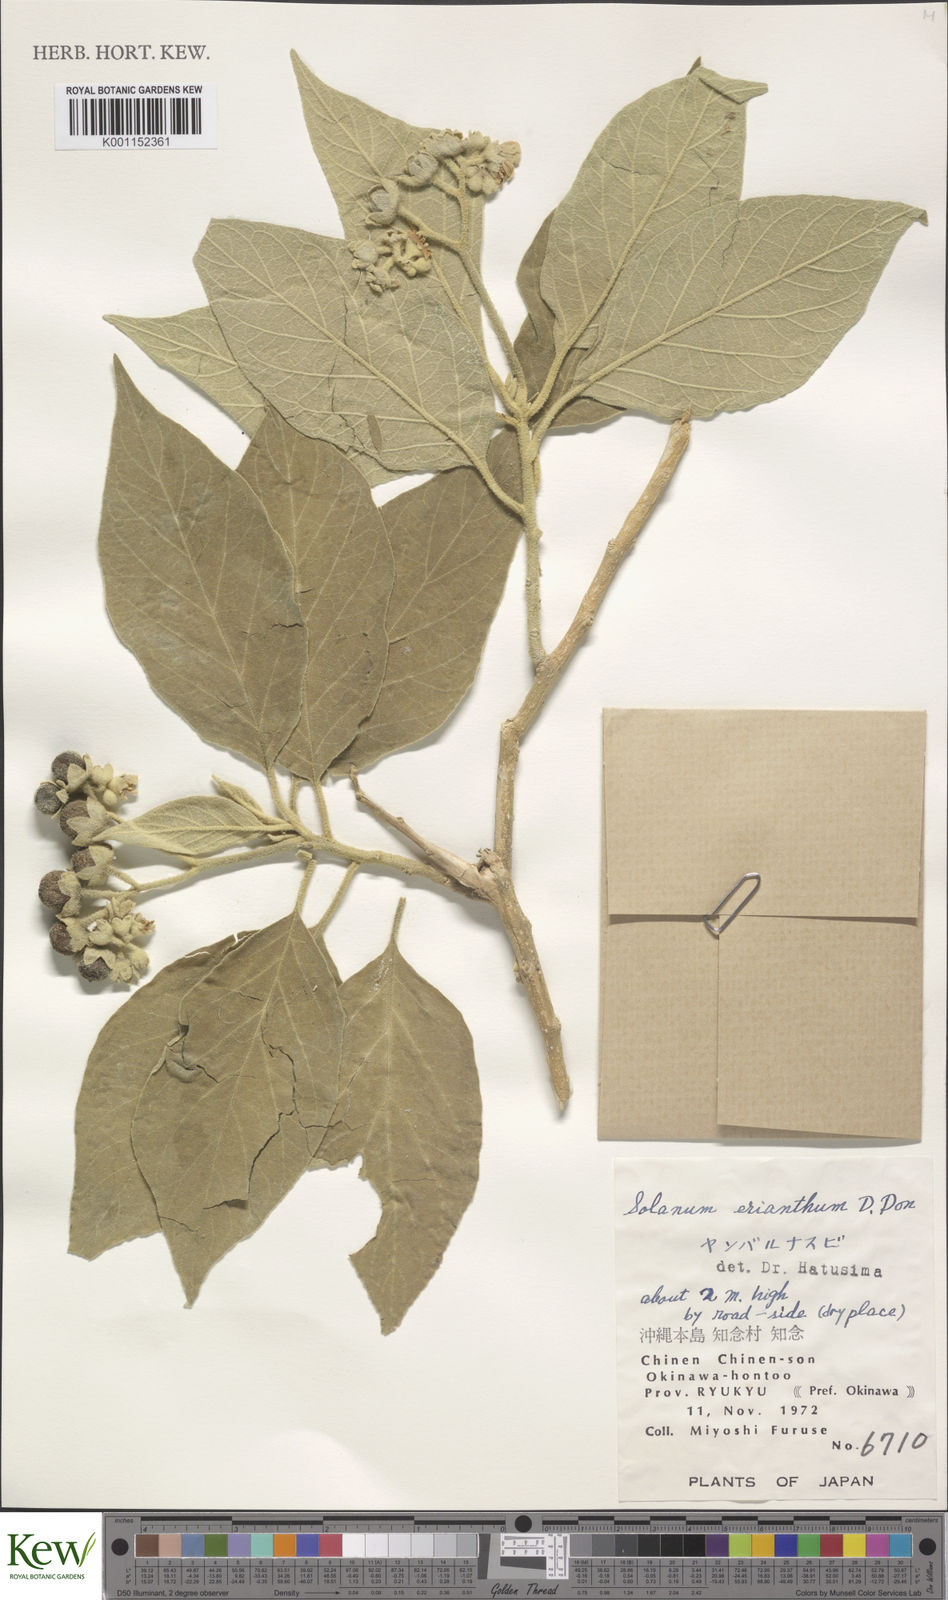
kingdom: Plantae
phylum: Tracheophyta
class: Magnoliopsida
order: Solanales
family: Solanaceae
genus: Solanum
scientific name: Solanum erianthum
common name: Tobacco-tree
